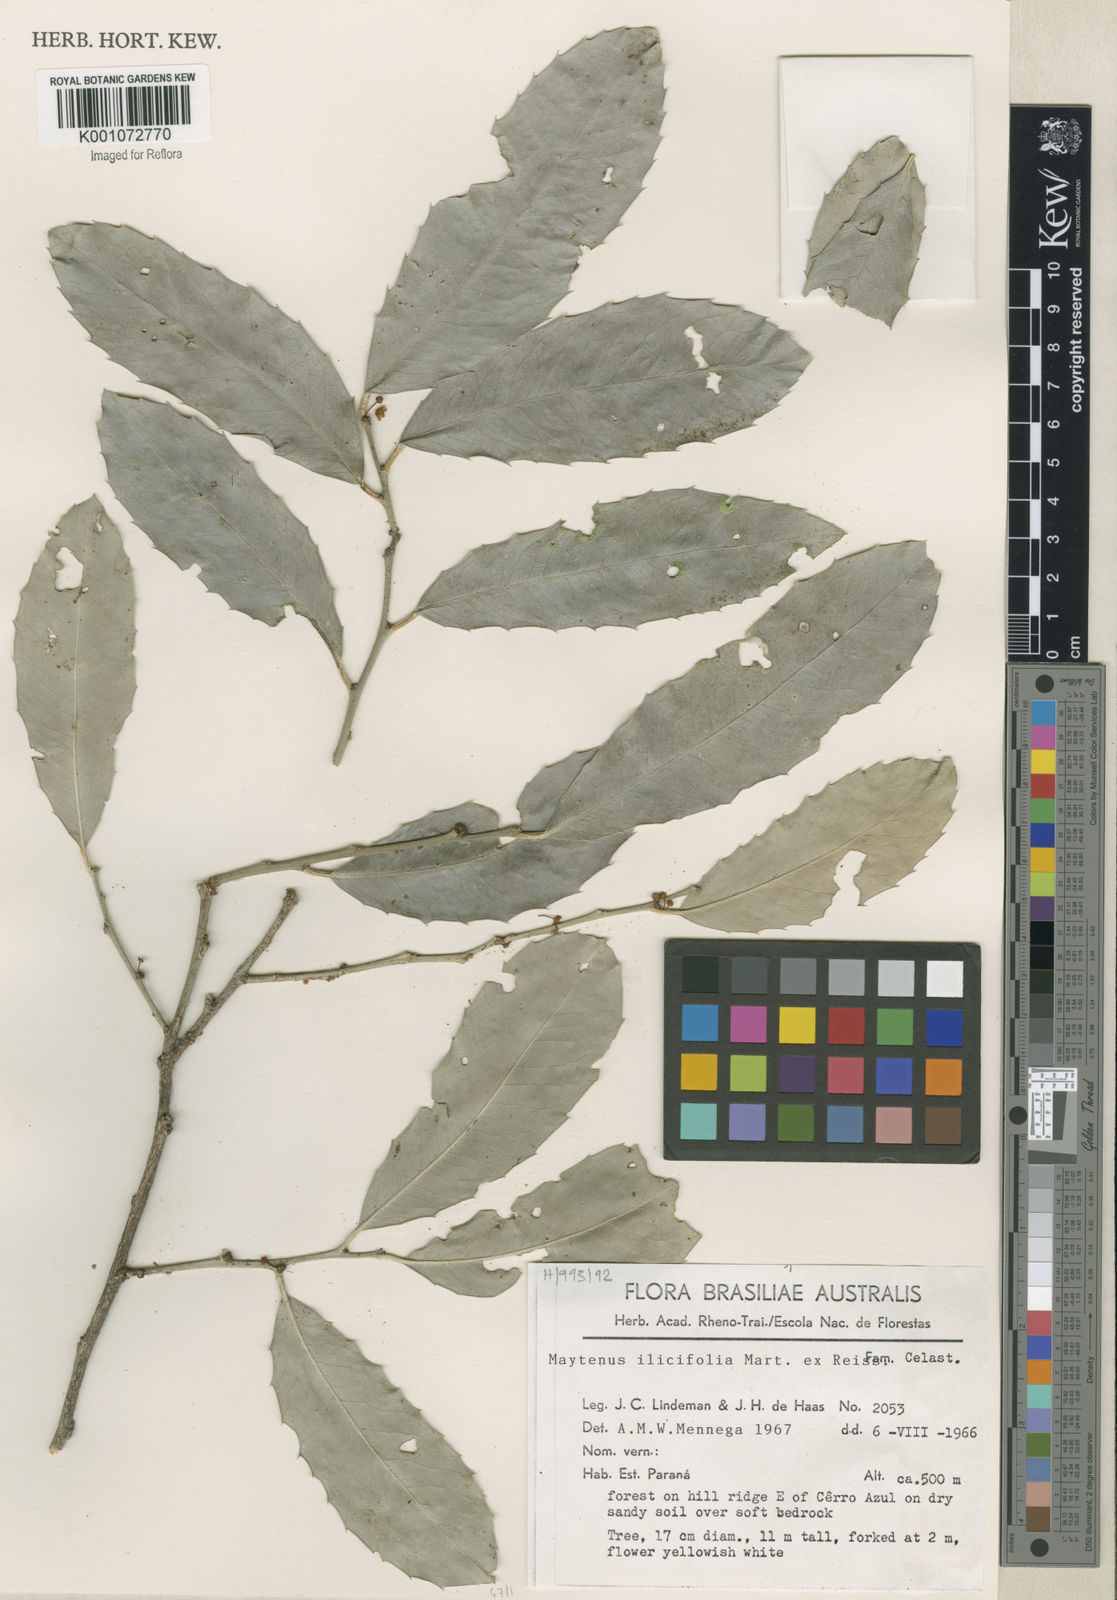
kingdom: Plantae
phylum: Tracheophyta
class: Magnoliopsida
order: Celastrales
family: Celastraceae
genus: Monteverdia
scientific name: Monteverdia ilicifolia
